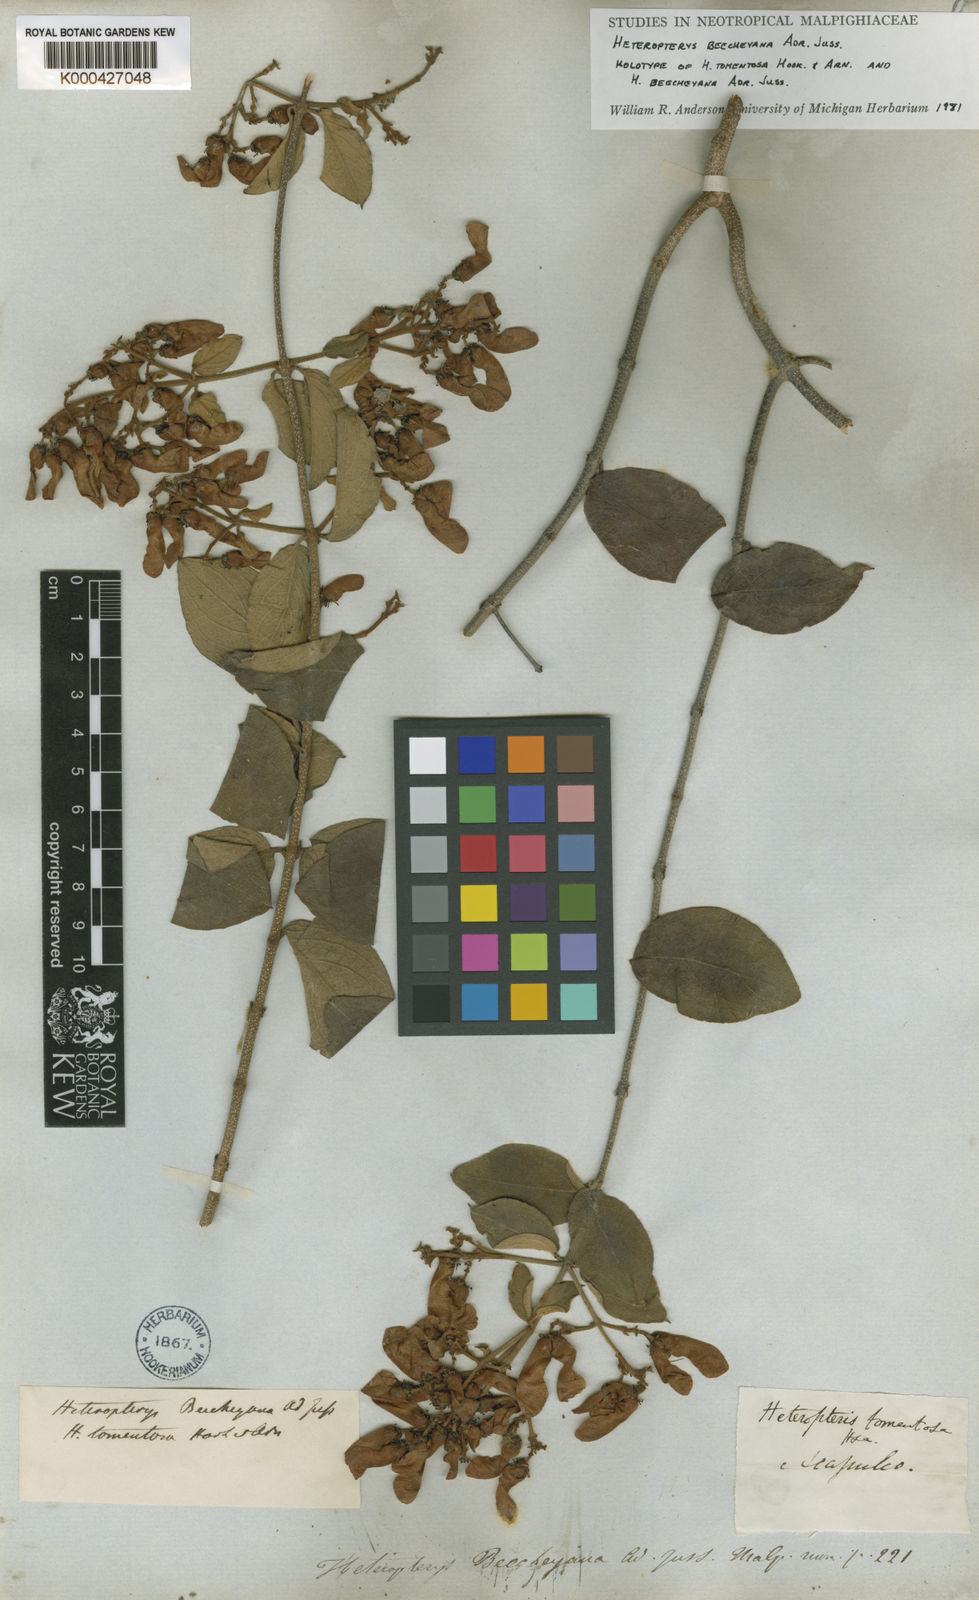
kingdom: Plantae
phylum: Tracheophyta
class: Magnoliopsida
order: Malpighiales
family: Malpighiaceae
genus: Heteropterys
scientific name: Heteropterys brachiata
